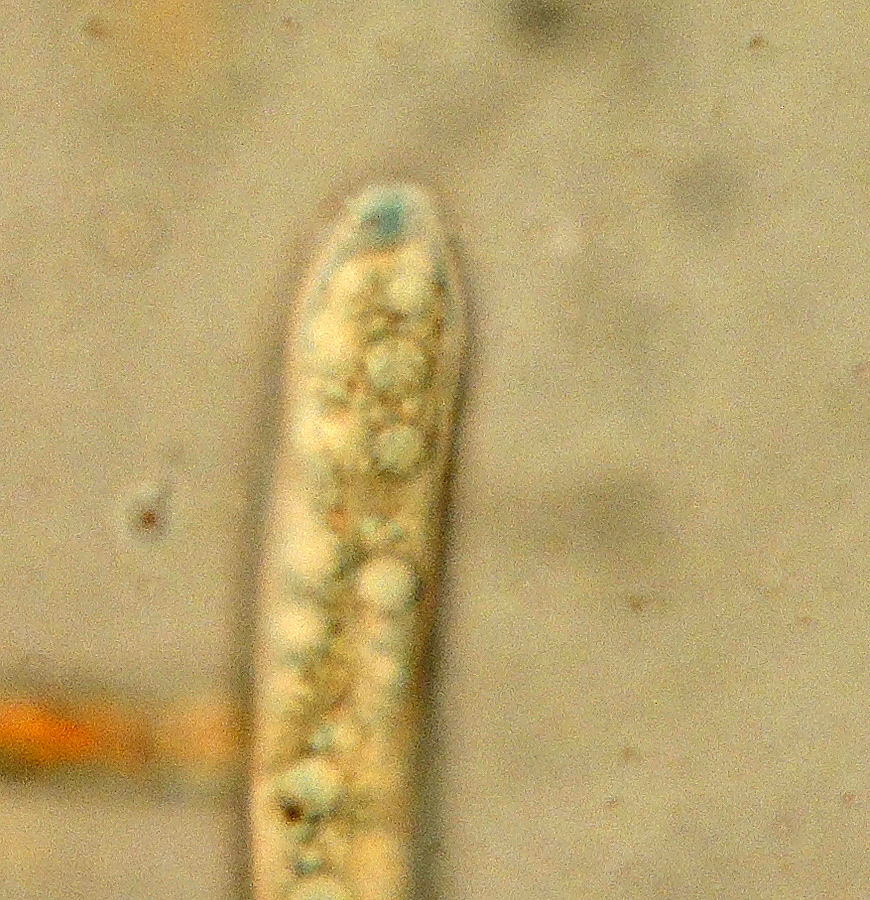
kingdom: Fungi
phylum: Ascomycota
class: Leotiomycetes
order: Helotiales
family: Helotiaceae
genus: Hymenoscyphus
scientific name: Hymenoscyphus scutula
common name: almindelig stilkskive
